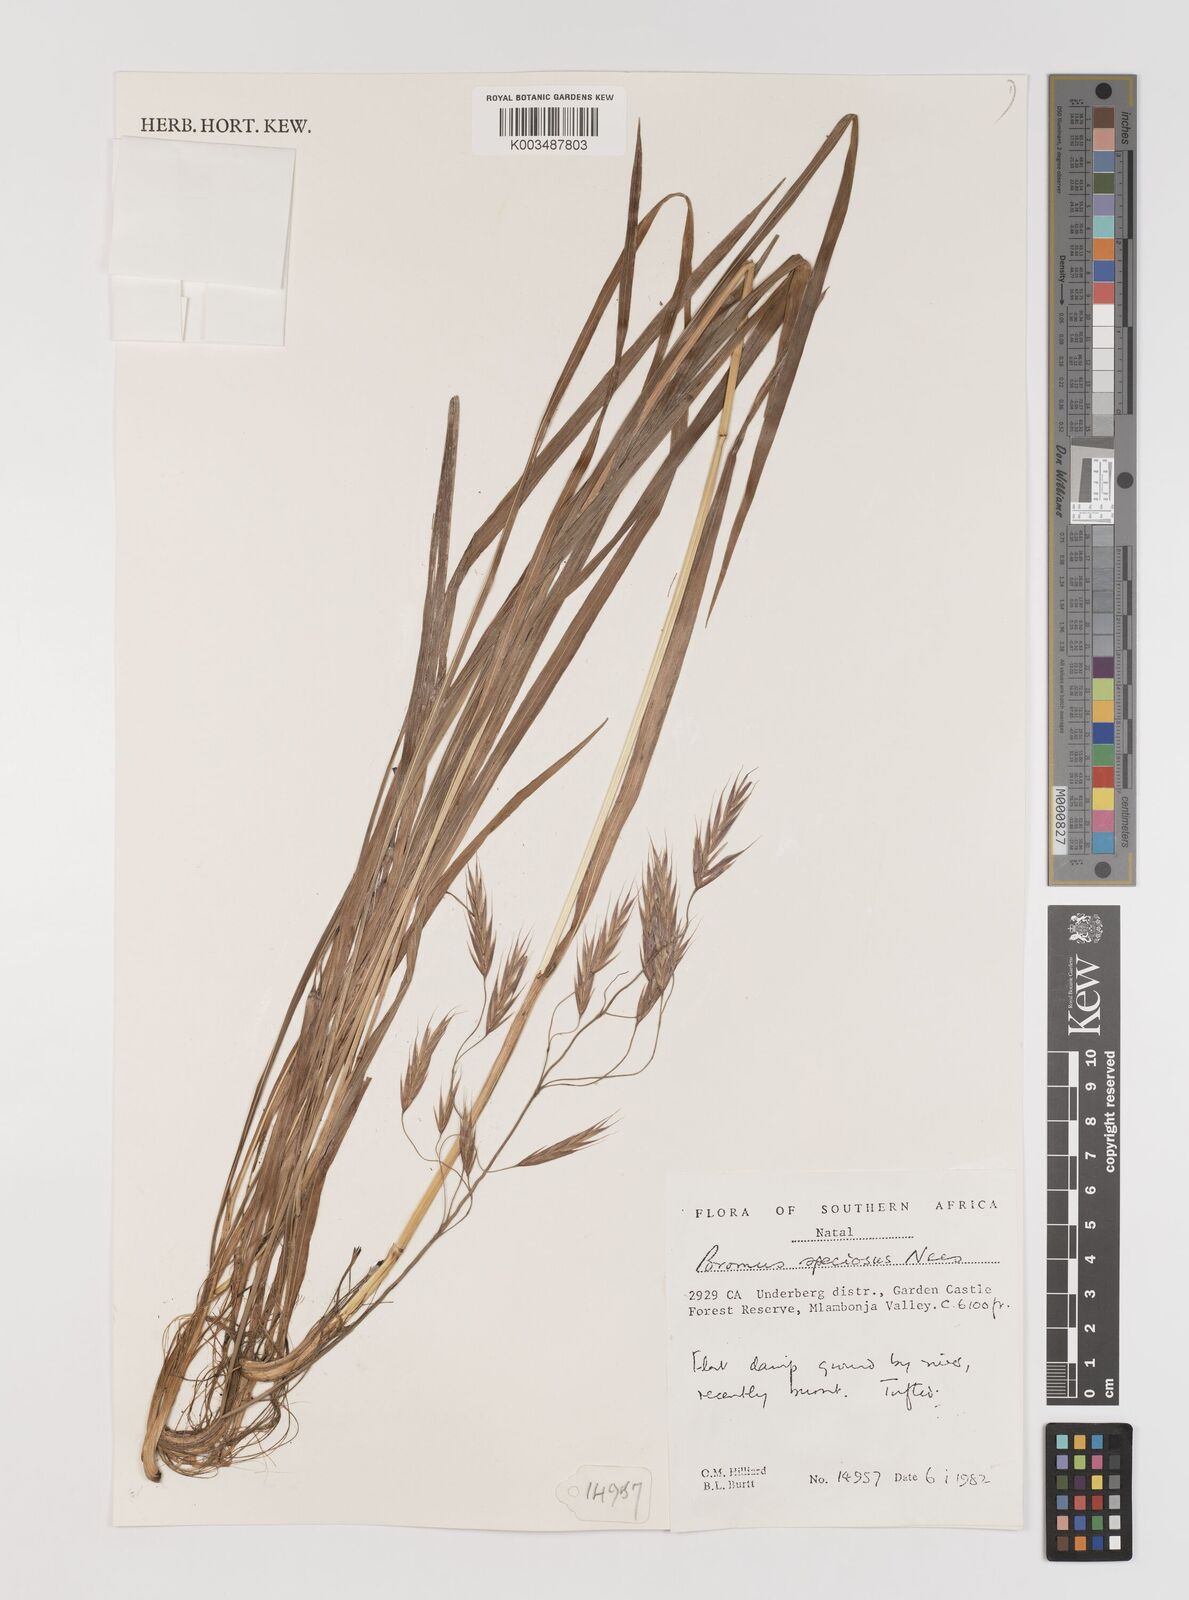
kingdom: Plantae
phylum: Tracheophyta
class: Liliopsida
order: Poales
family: Poaceae
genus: Bromus
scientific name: Bromus speciosus
